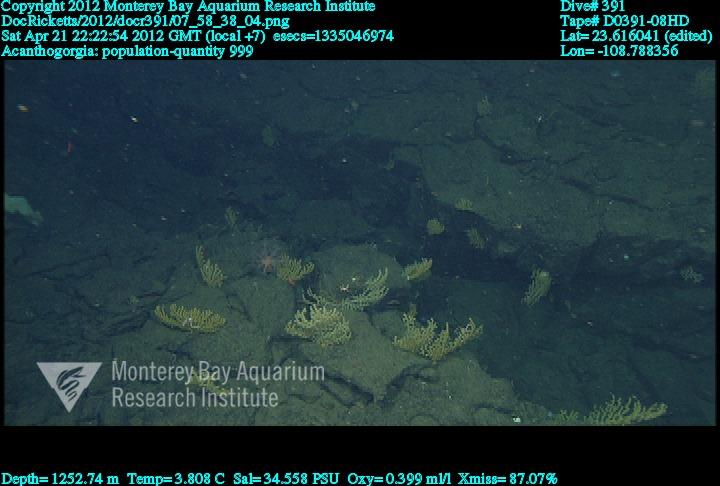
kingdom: Animalia
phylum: Cnidaria
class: Anthozoa
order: Malacalcyonacea
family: Paramuriceidae
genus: Acanthogorgia
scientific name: Acanthogorgia
